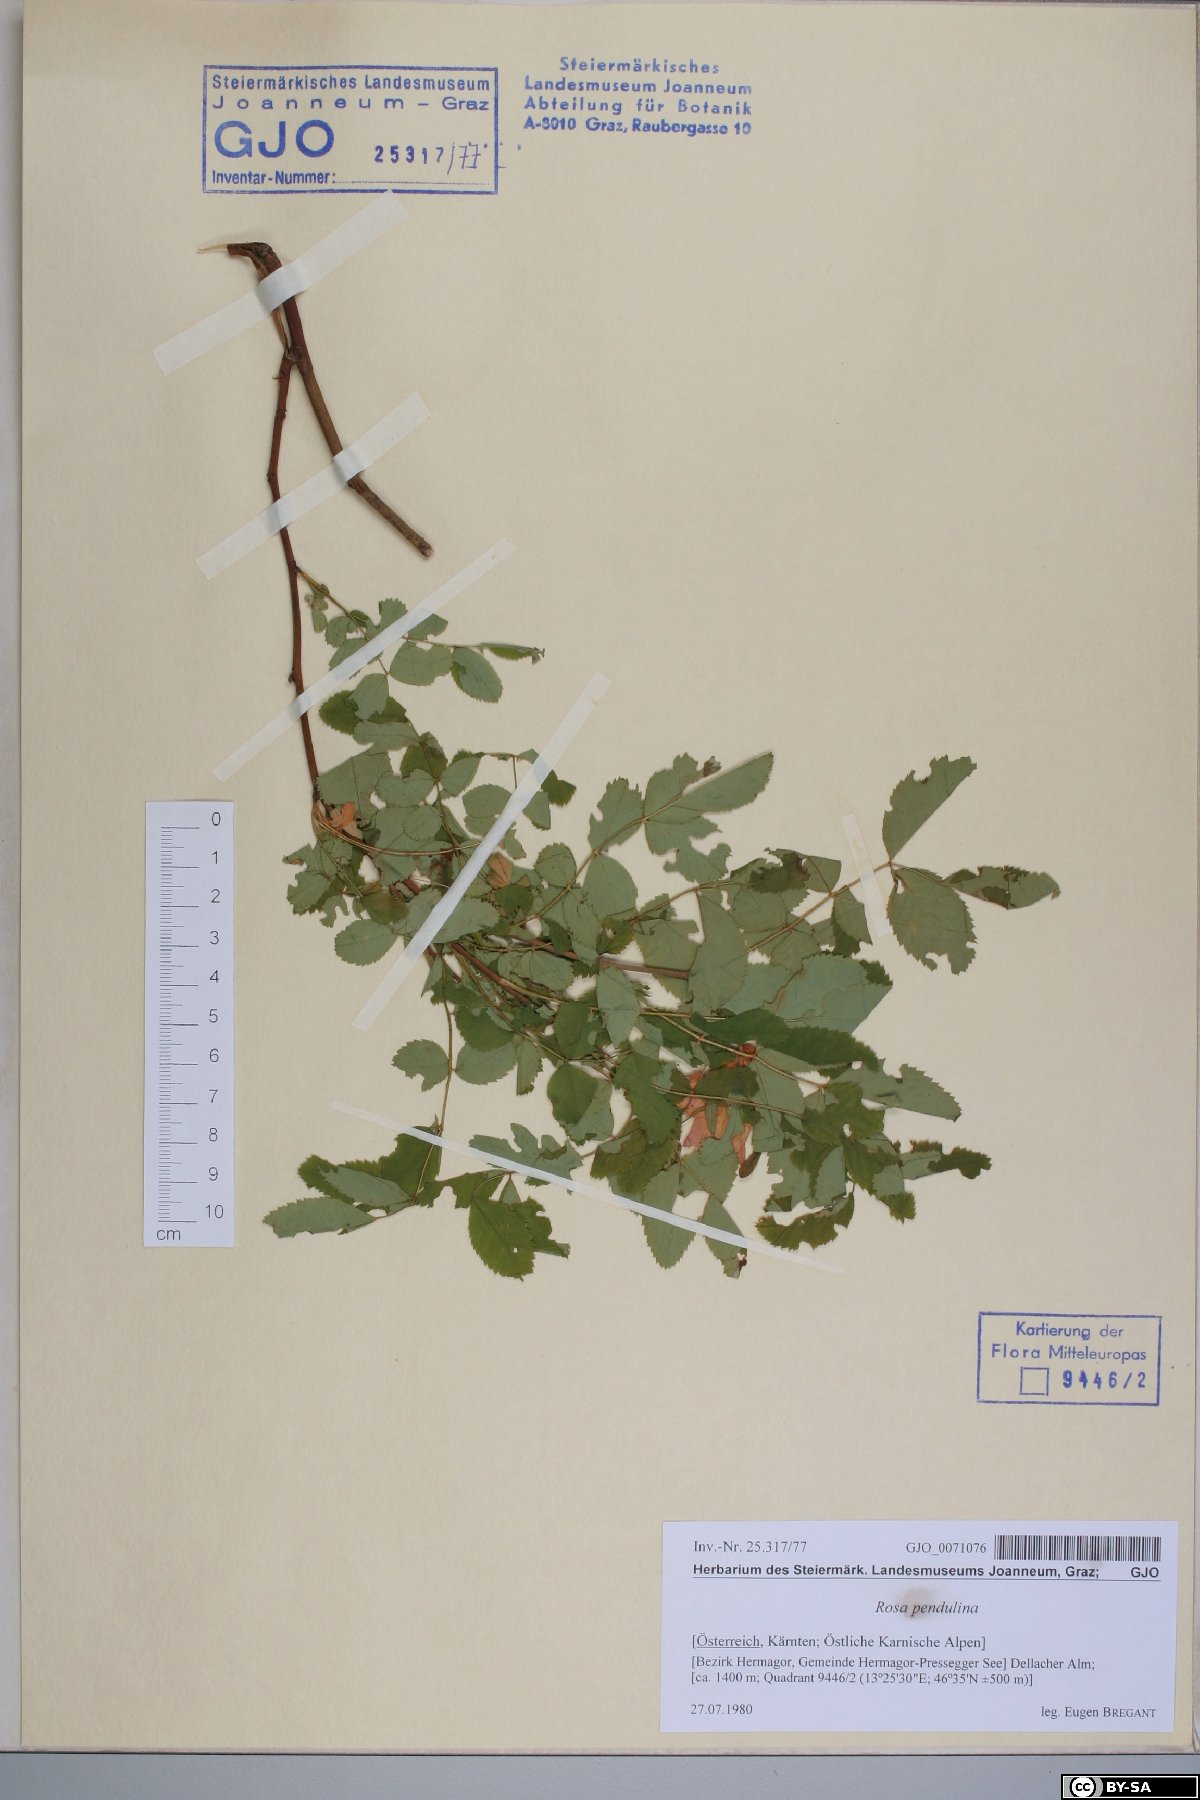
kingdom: Plantae
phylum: Tracheophyta
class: Magnoliopsida
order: Rosales
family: Rosaceae
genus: Rosa
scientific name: Rosa pendulina
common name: Alpine rose
